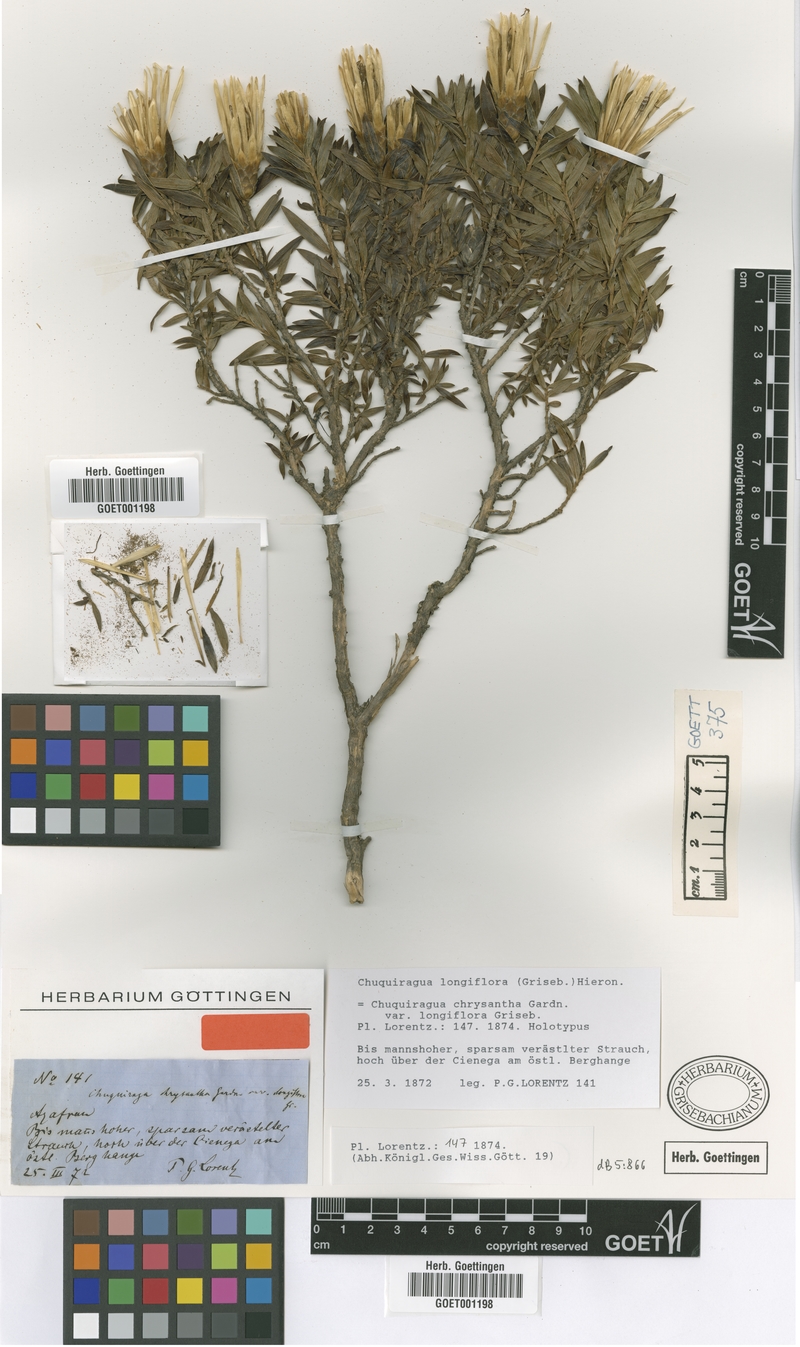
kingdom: Plantae
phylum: Tracheophyta
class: Magnoliopsida
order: Asterales
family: Asteraceae
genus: Chuquiraga
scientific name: Chuquiraga longiflora
